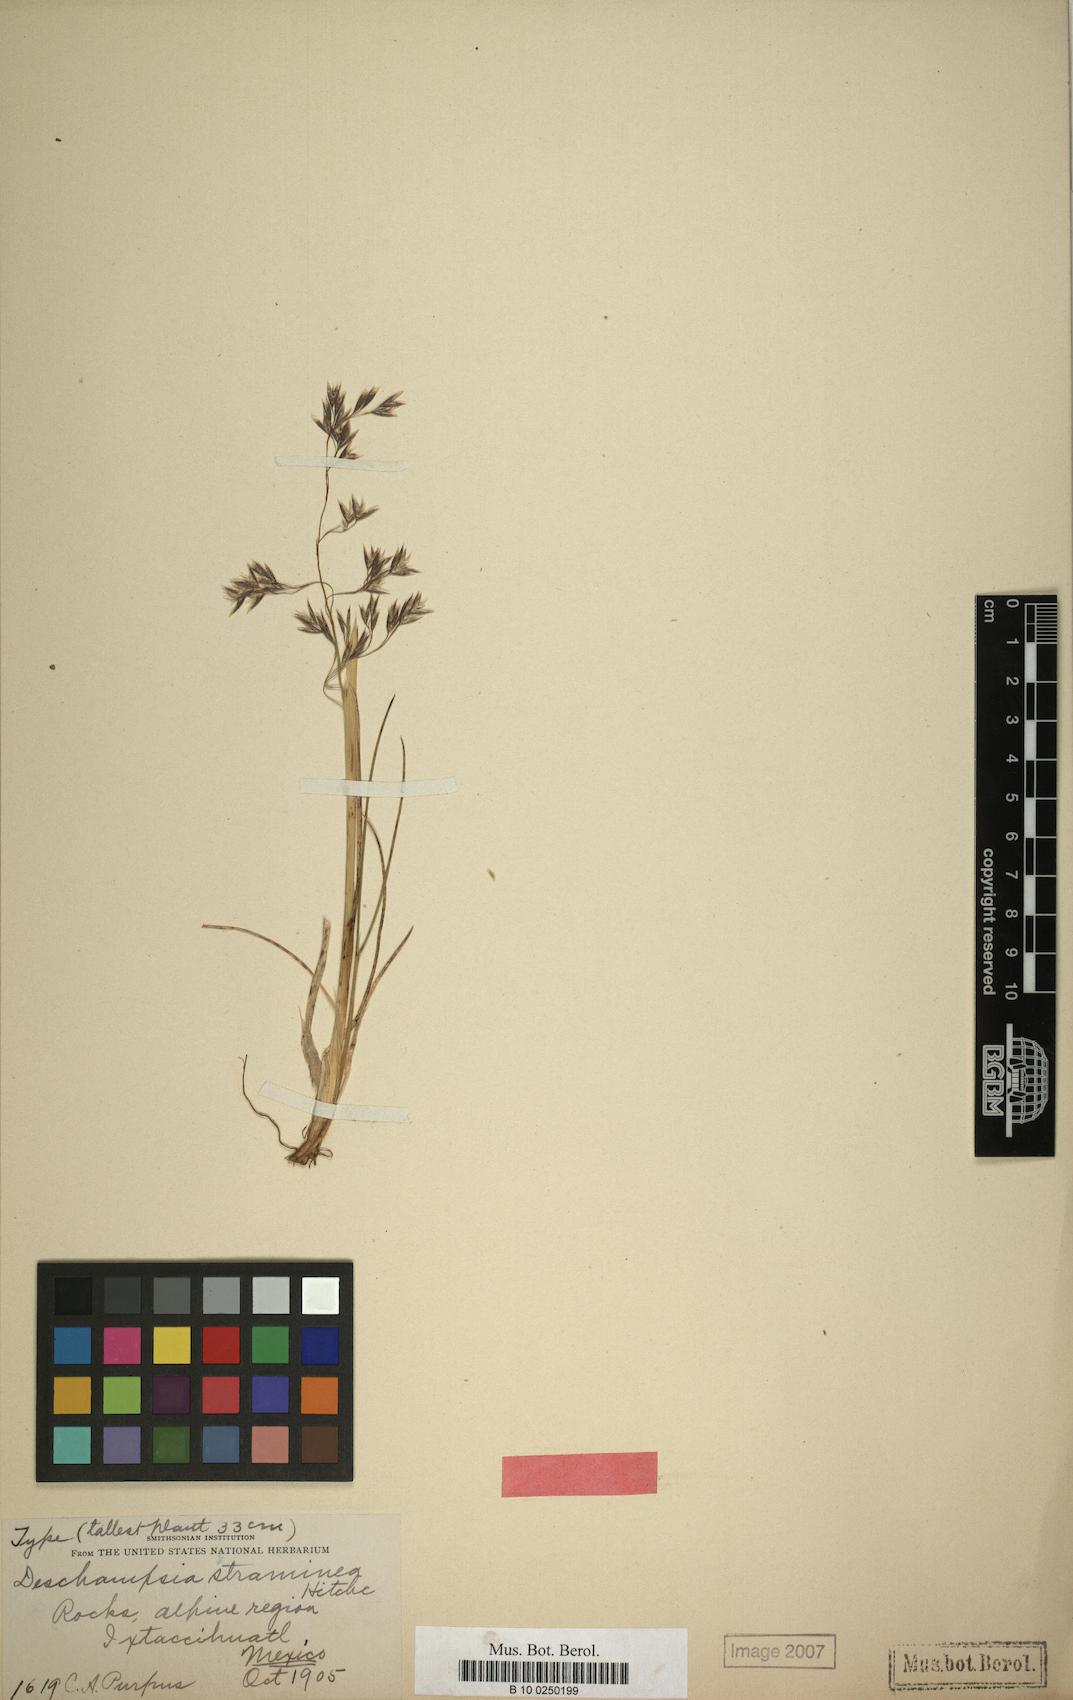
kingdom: Plantae
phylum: Tracheophyta
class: Liliopsida
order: Poales
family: Poaceae
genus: Deschampsia
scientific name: Deschampsia liebmanniana
